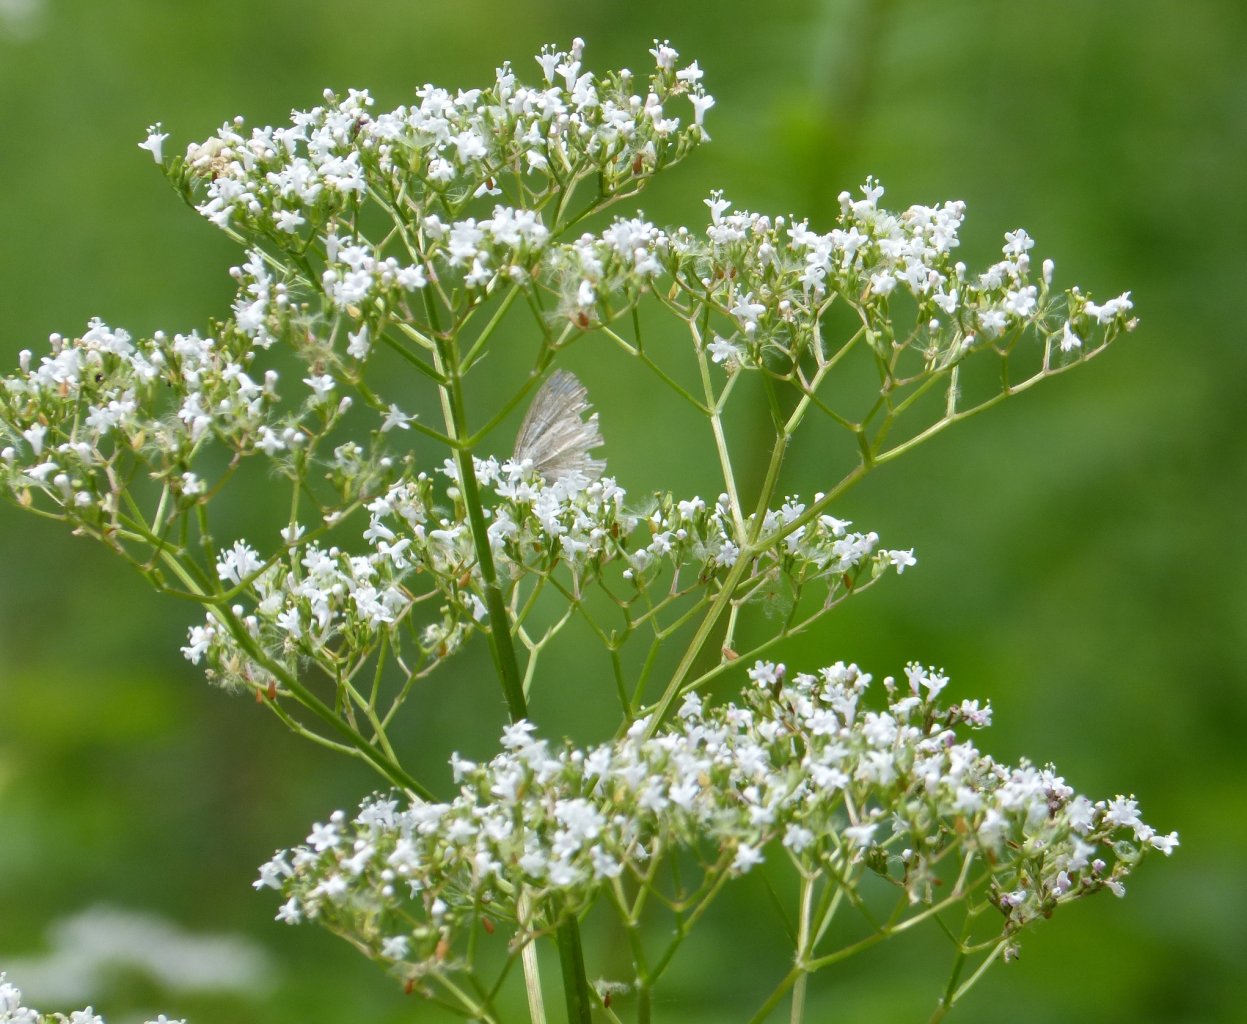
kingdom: Animalia
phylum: Arthropoda
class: Insecta
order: Lepidoptera
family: Lycaenidae
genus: Celastrina
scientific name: Celastrina lucia
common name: Northern Spring Azure
